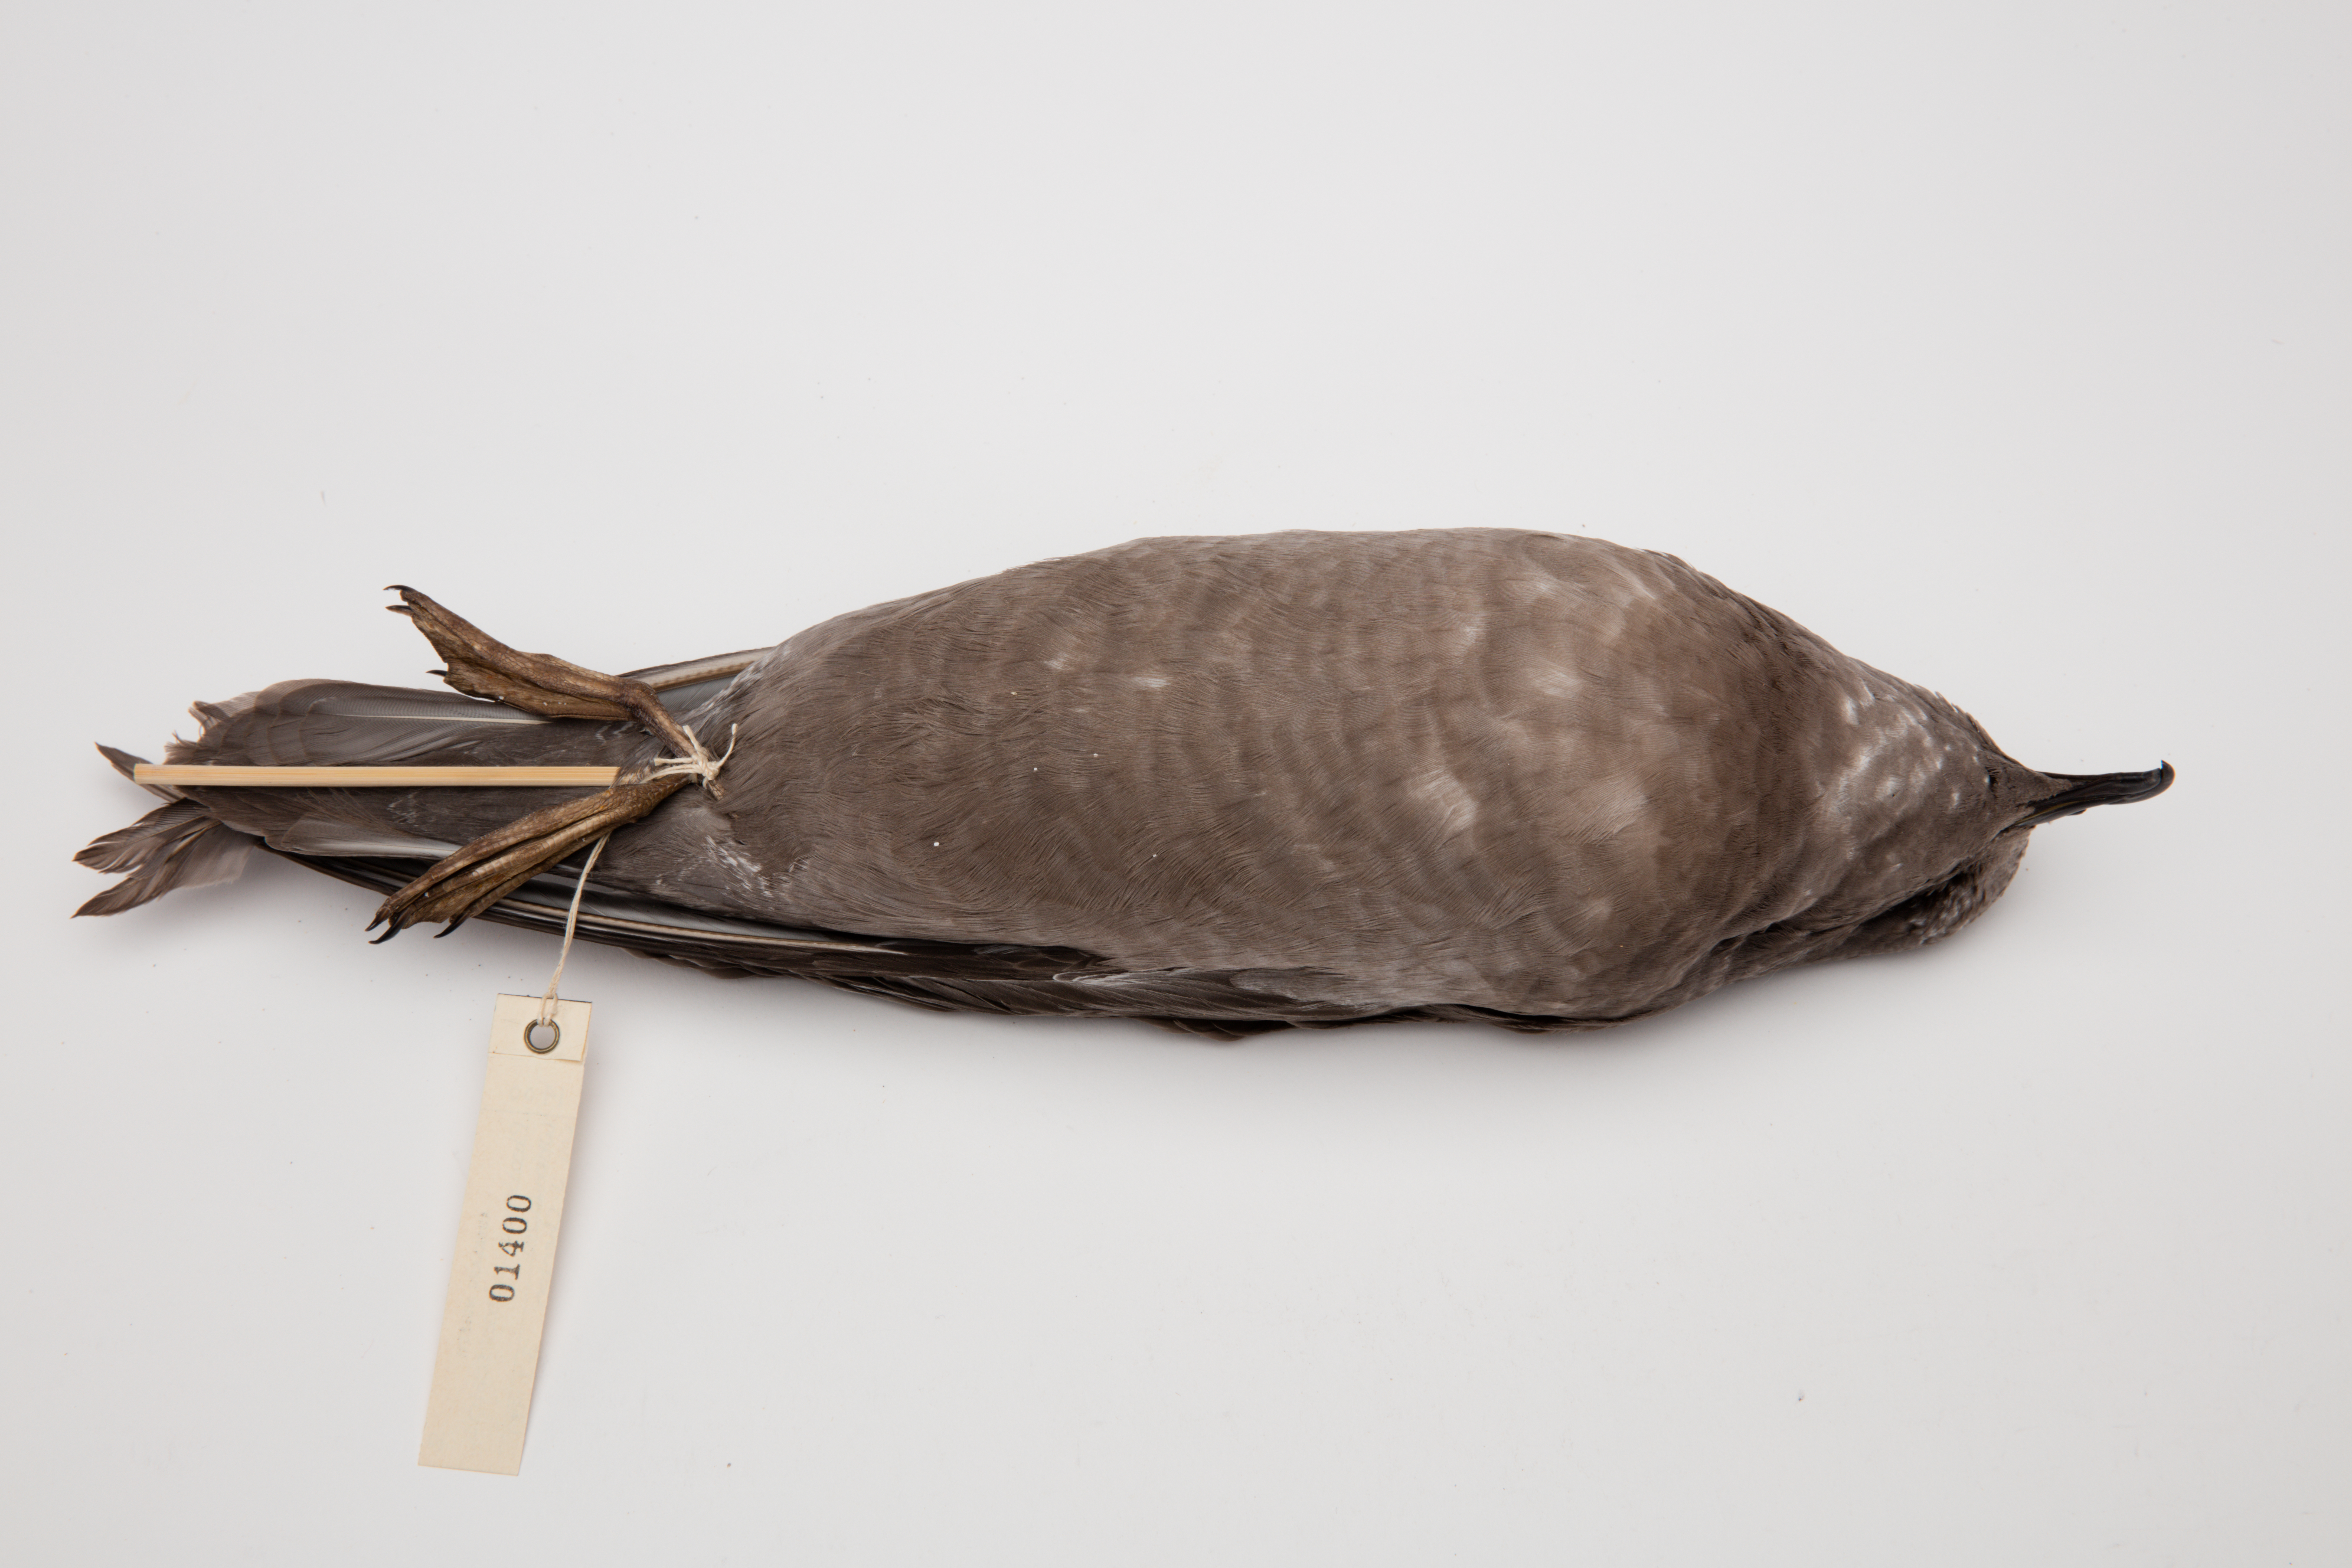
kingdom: Animalia
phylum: Chordata
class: Aves
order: Procellariiformes
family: Procellariidae
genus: Aphrodroma
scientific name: Aphrodroma brevirostris
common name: Kerguelen petrel
